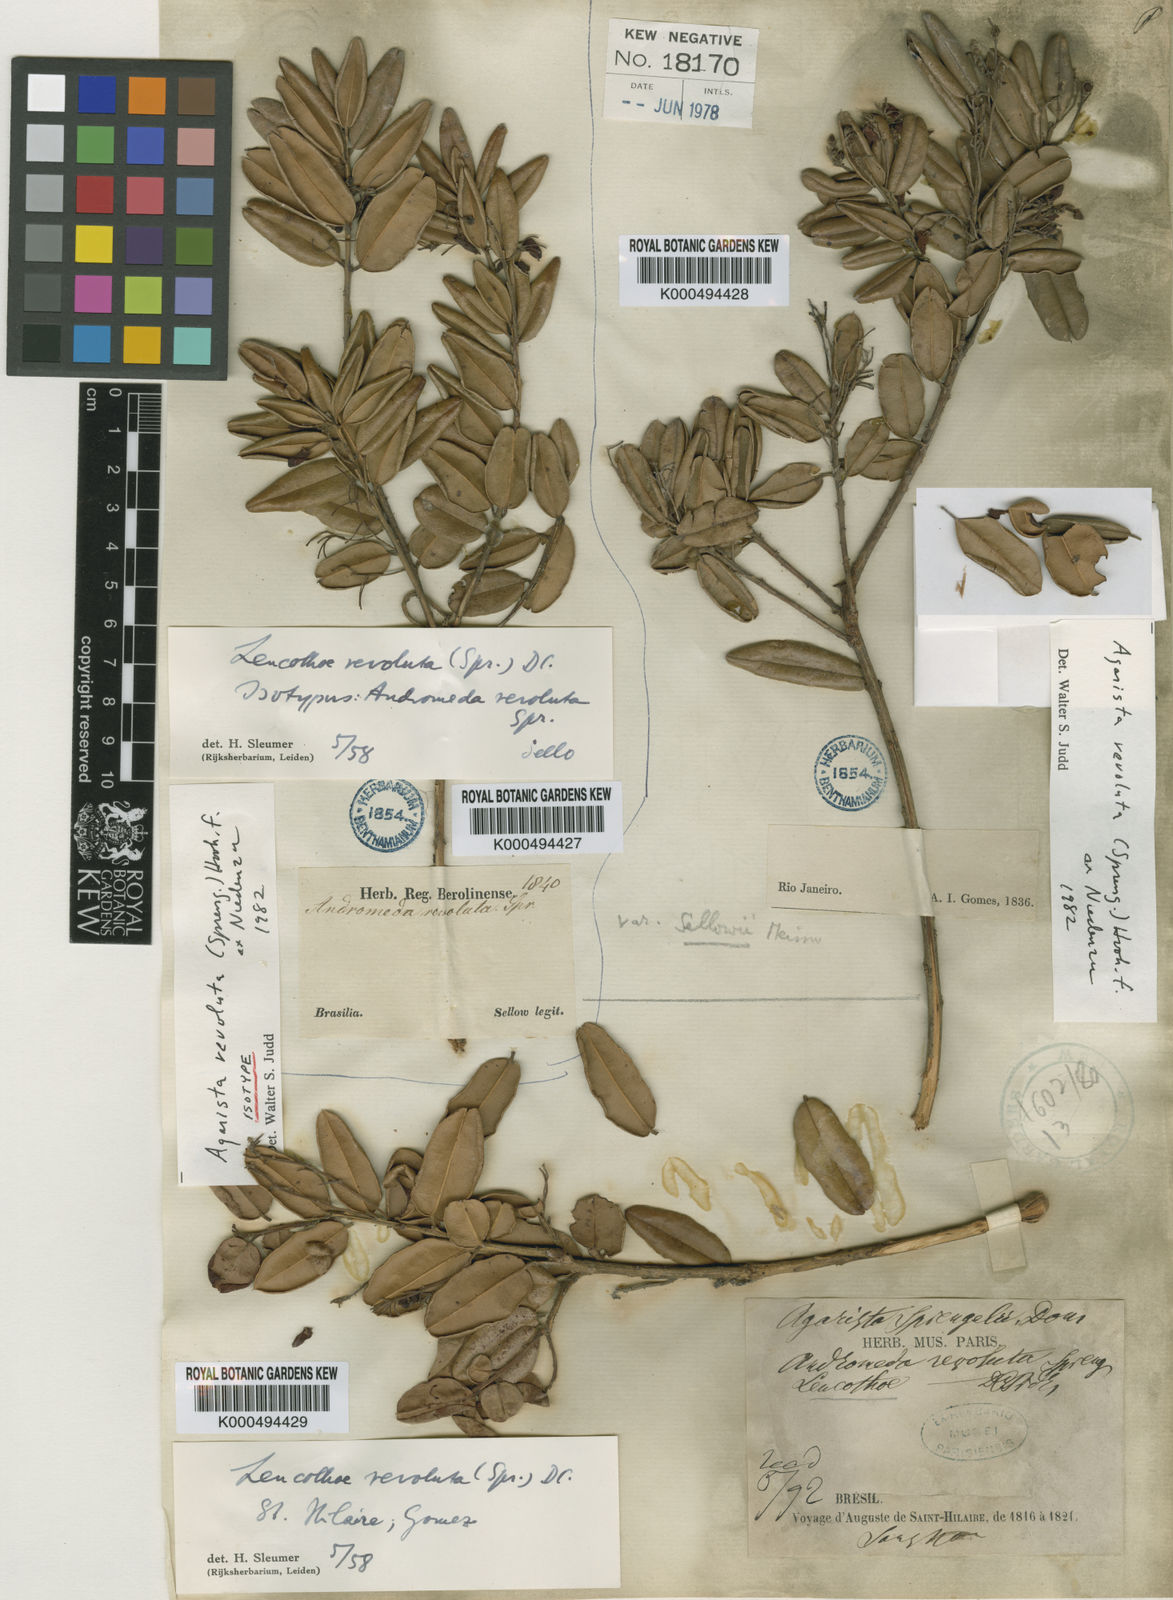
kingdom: Plantae
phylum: Tracheophyta
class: Magnoliopsida
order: Ericales
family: Ericaceae
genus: Agarista
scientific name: Agarista revoluta
